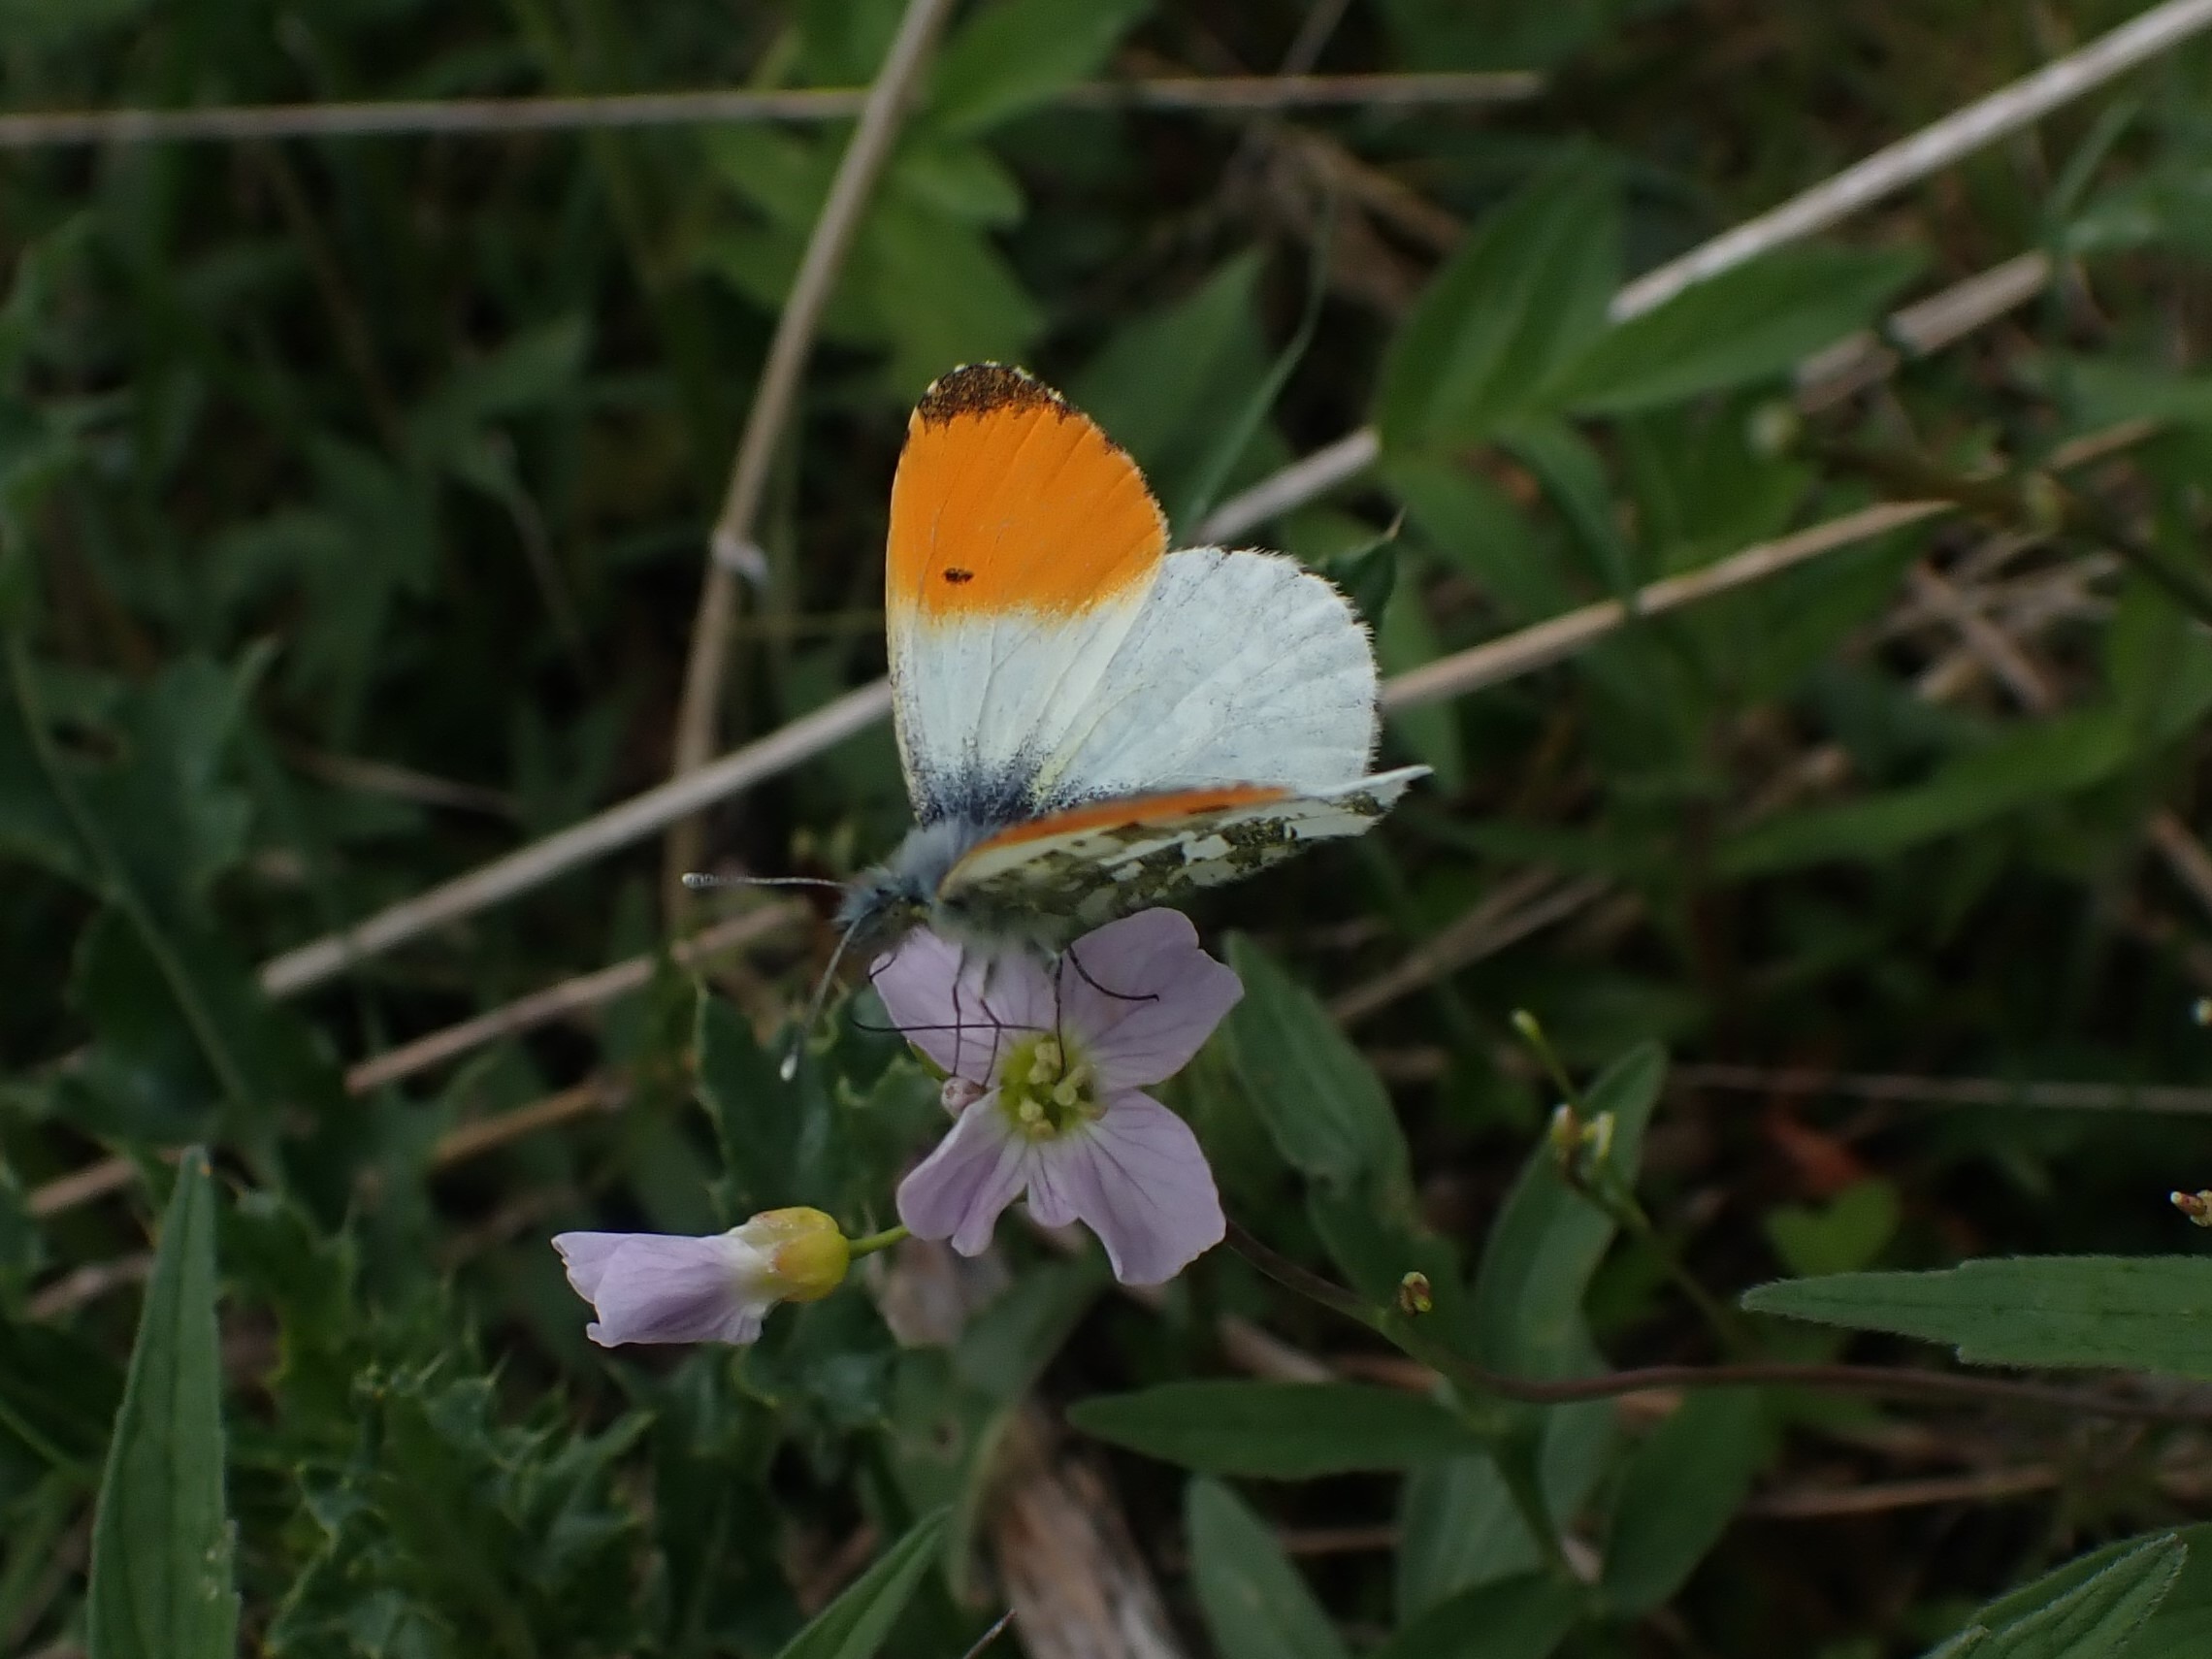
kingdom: Animalia
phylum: Arthropoda
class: Insecta
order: Lepidoptera
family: Pieridae
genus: Anthocharis
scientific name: Anthocharis cardamines
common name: Aurora
